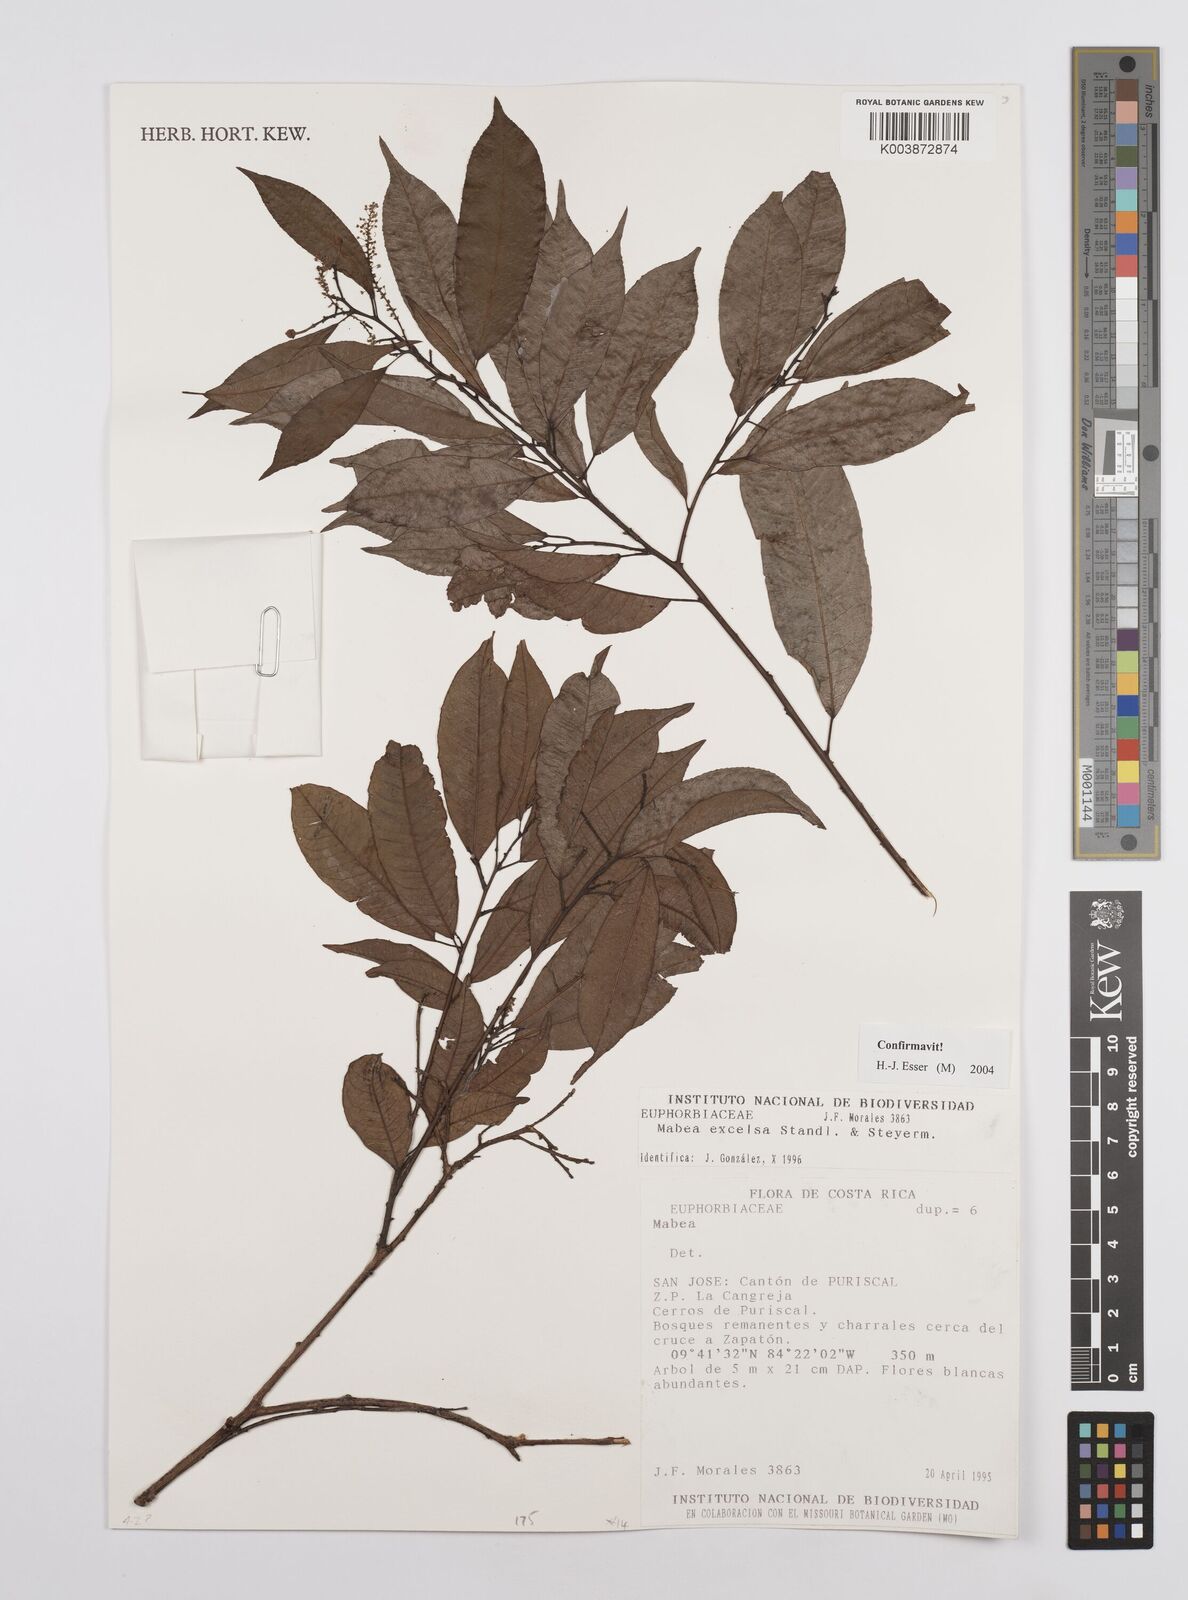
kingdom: Plantae
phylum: Tracheophyta
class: Magnoliopsida
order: Malpighiales
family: Euphorbiaceae
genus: Mabea
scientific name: Mabea excelsa
